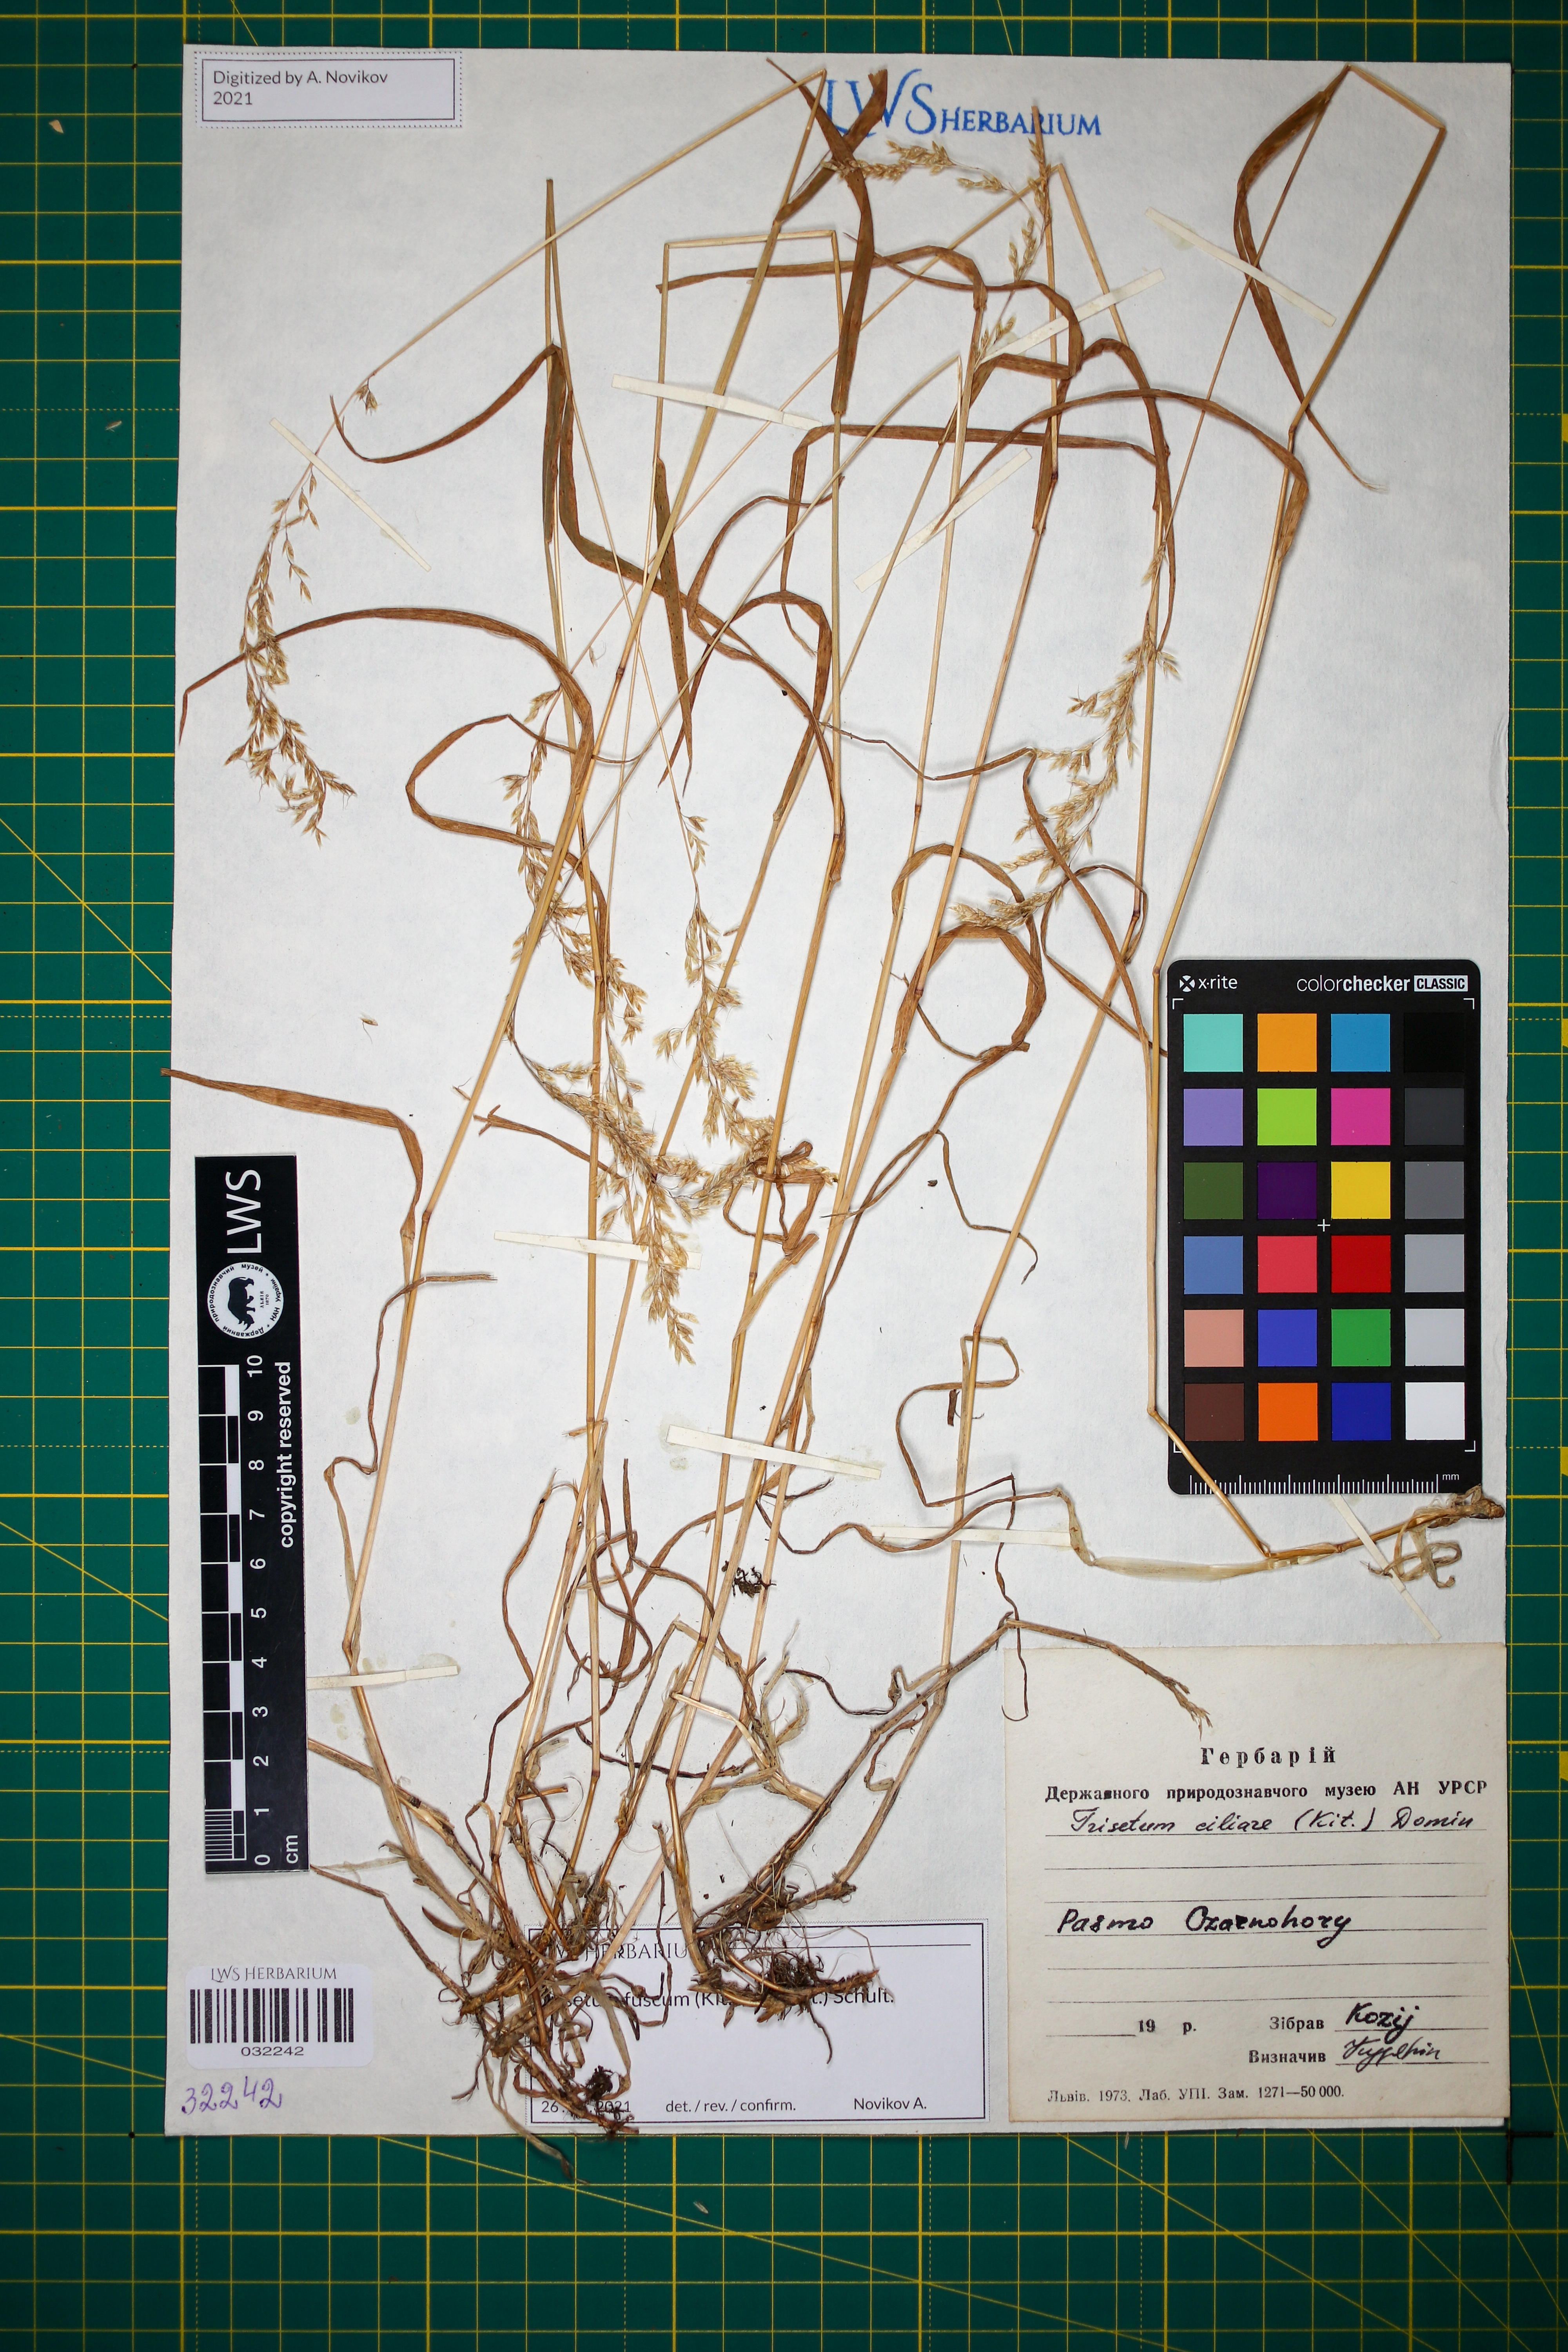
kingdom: Plantae
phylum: Tracheophyta
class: Liliopsida
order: Poales
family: Poaceae
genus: Trisetum
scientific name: Trisetum fuscum
